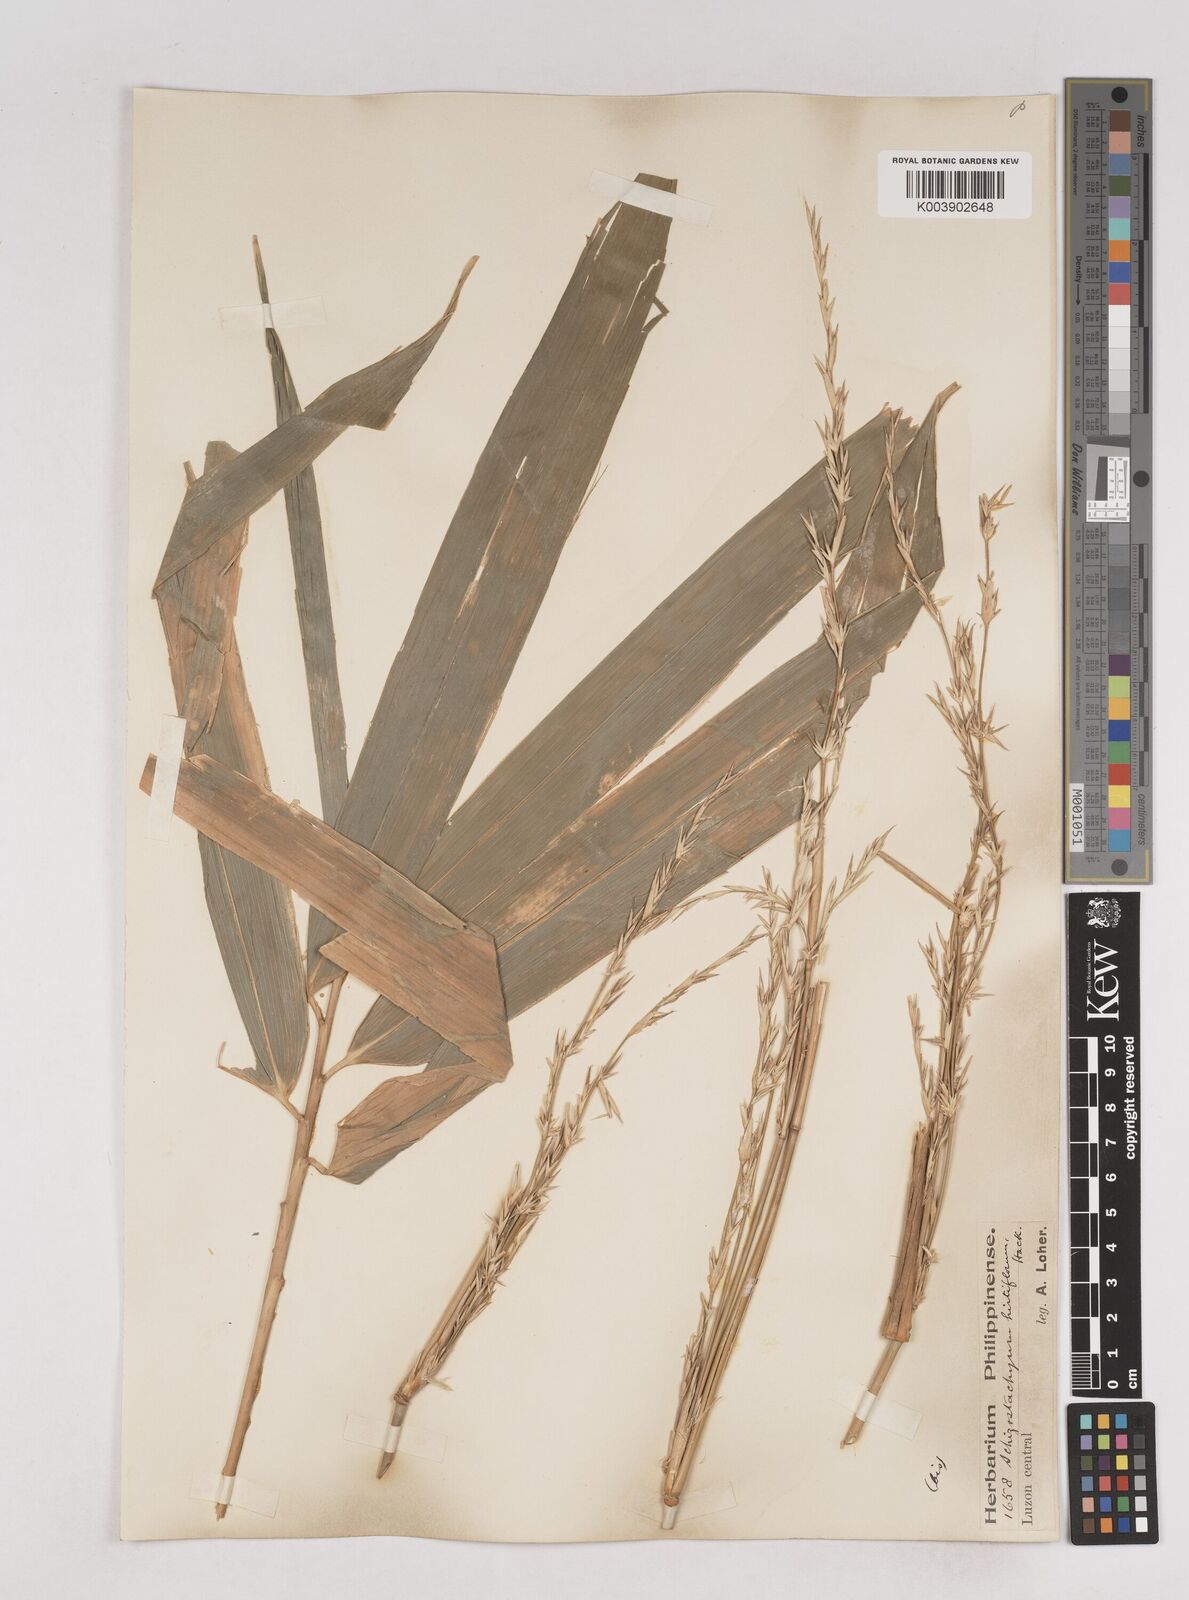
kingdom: Plantae
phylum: Tracheophyta
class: Liliopsida
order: Poales
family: Poaceae
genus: Schizostachyum
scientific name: Schizostachyum lumampao
